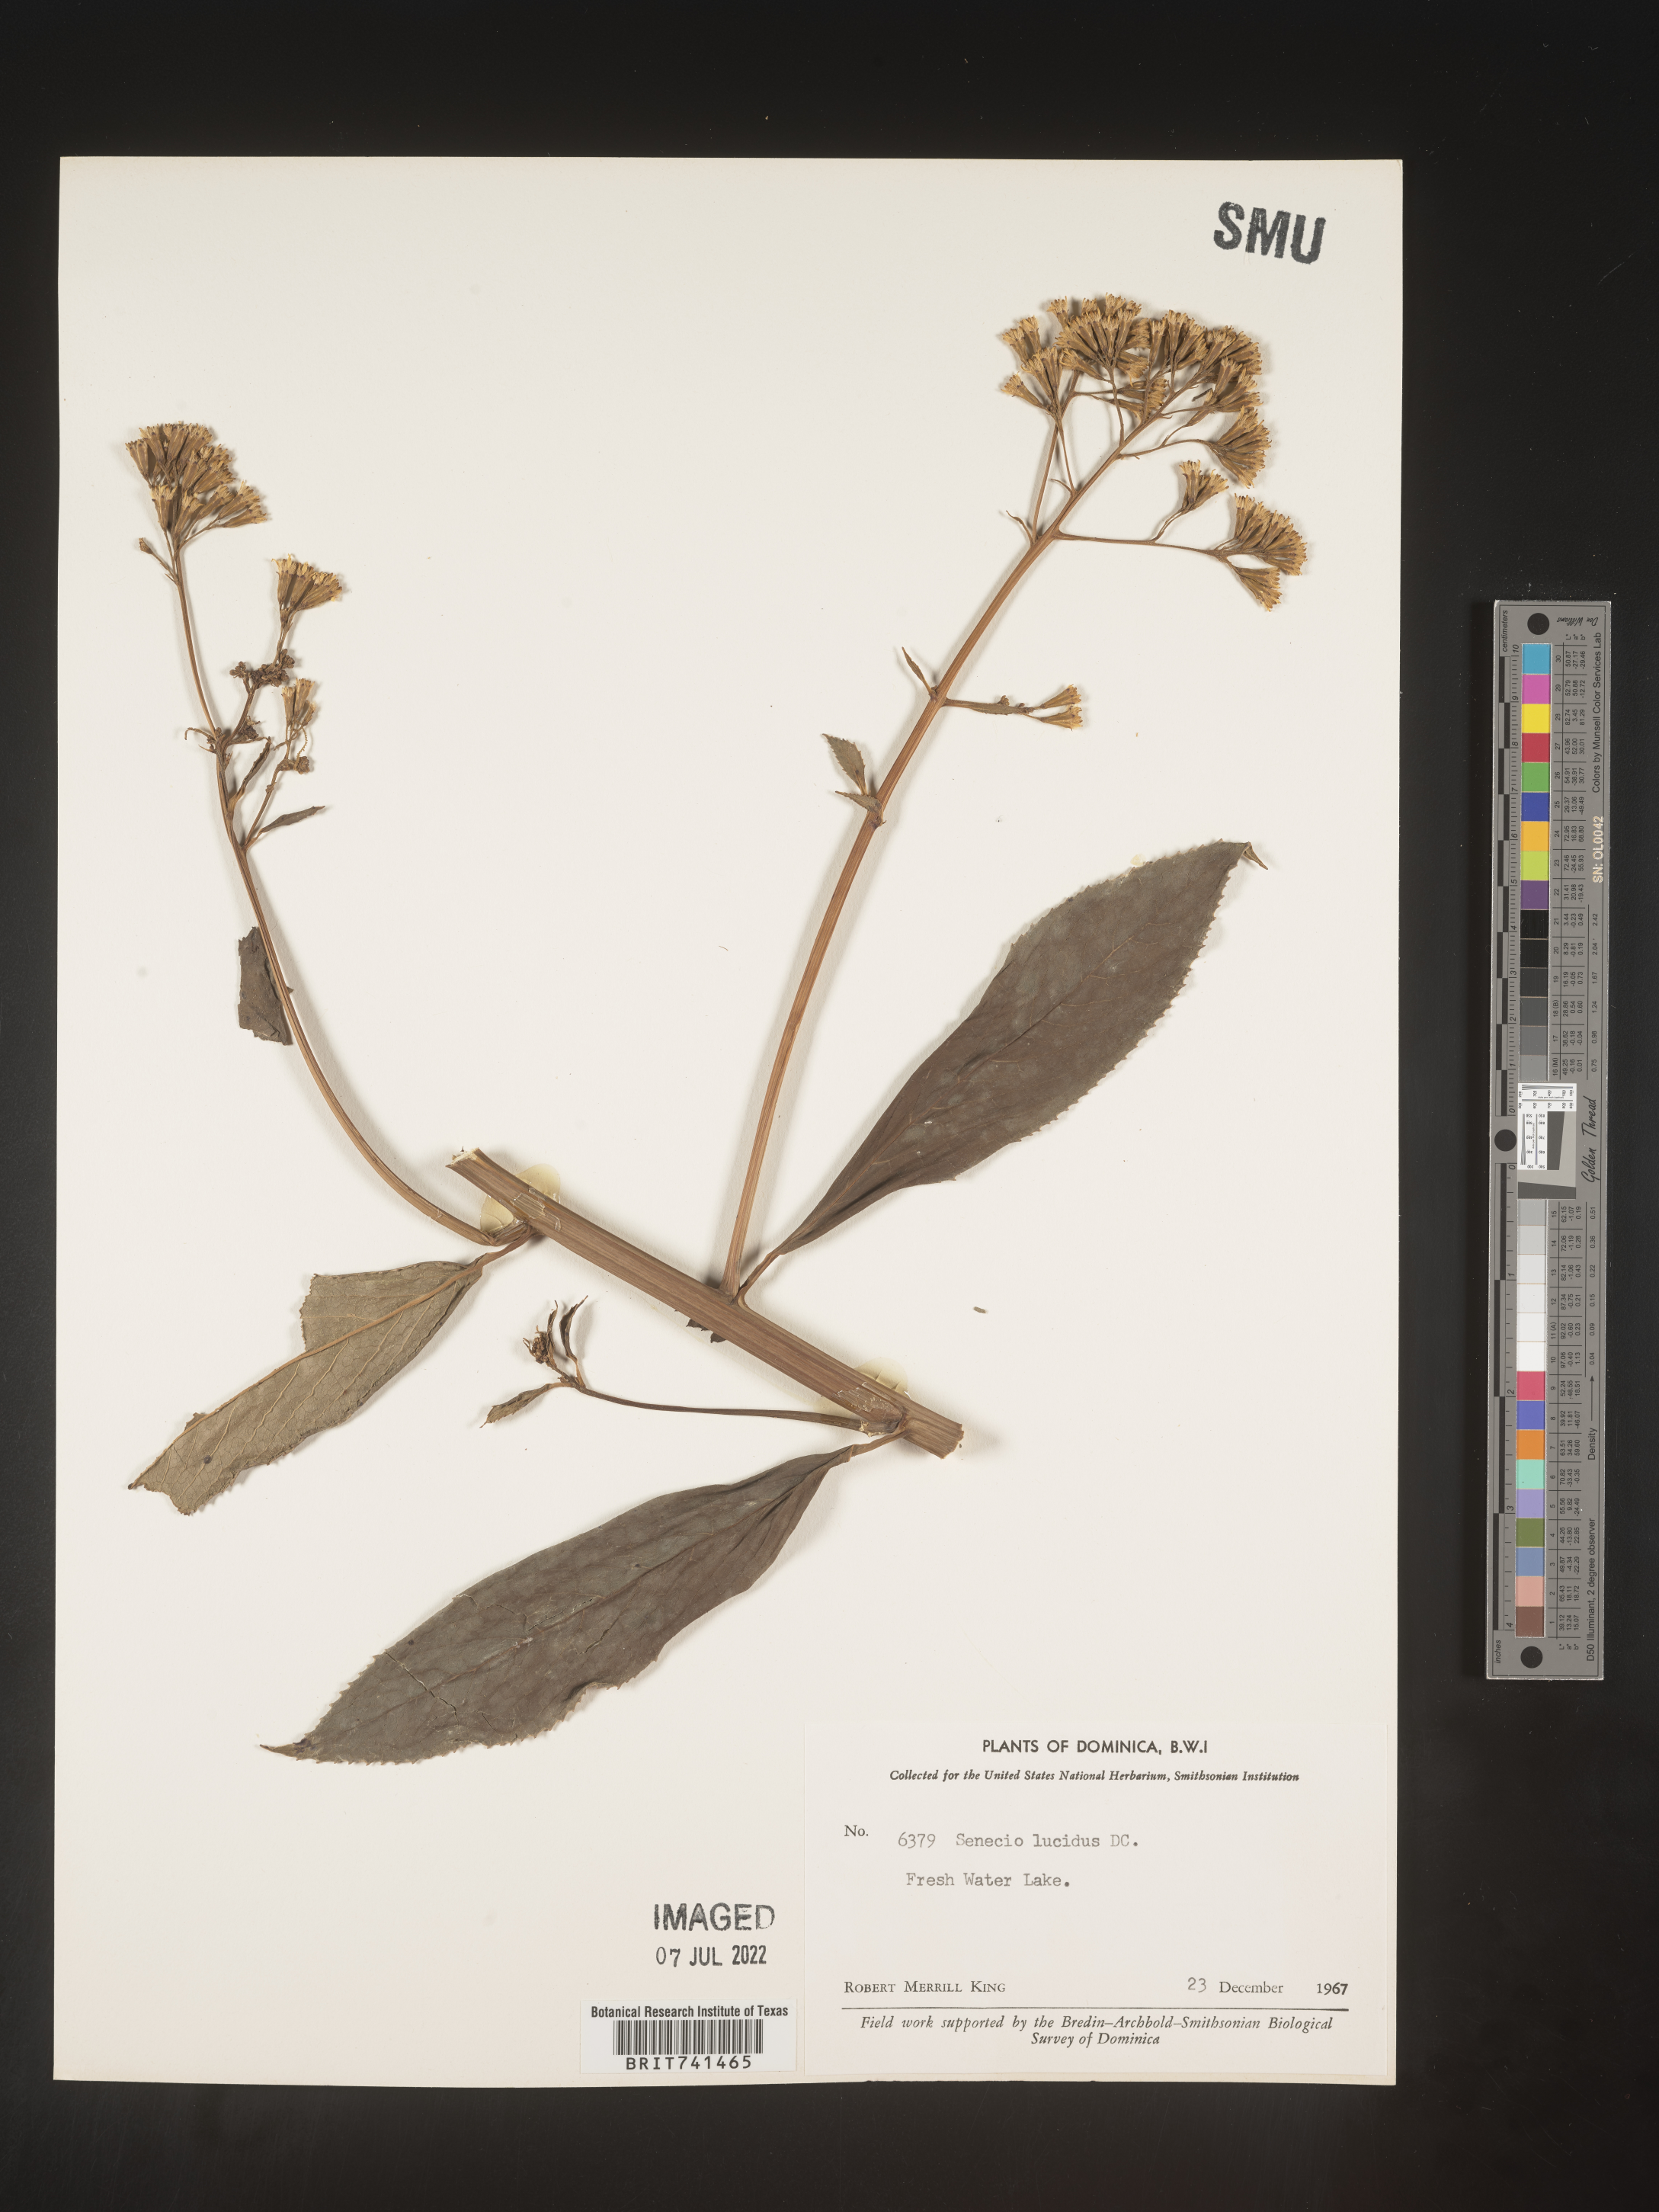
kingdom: Plantae
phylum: Tracheophyta
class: Magnoliopsida
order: Asterales
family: Asteraceae
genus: Senecio
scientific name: Senecio
